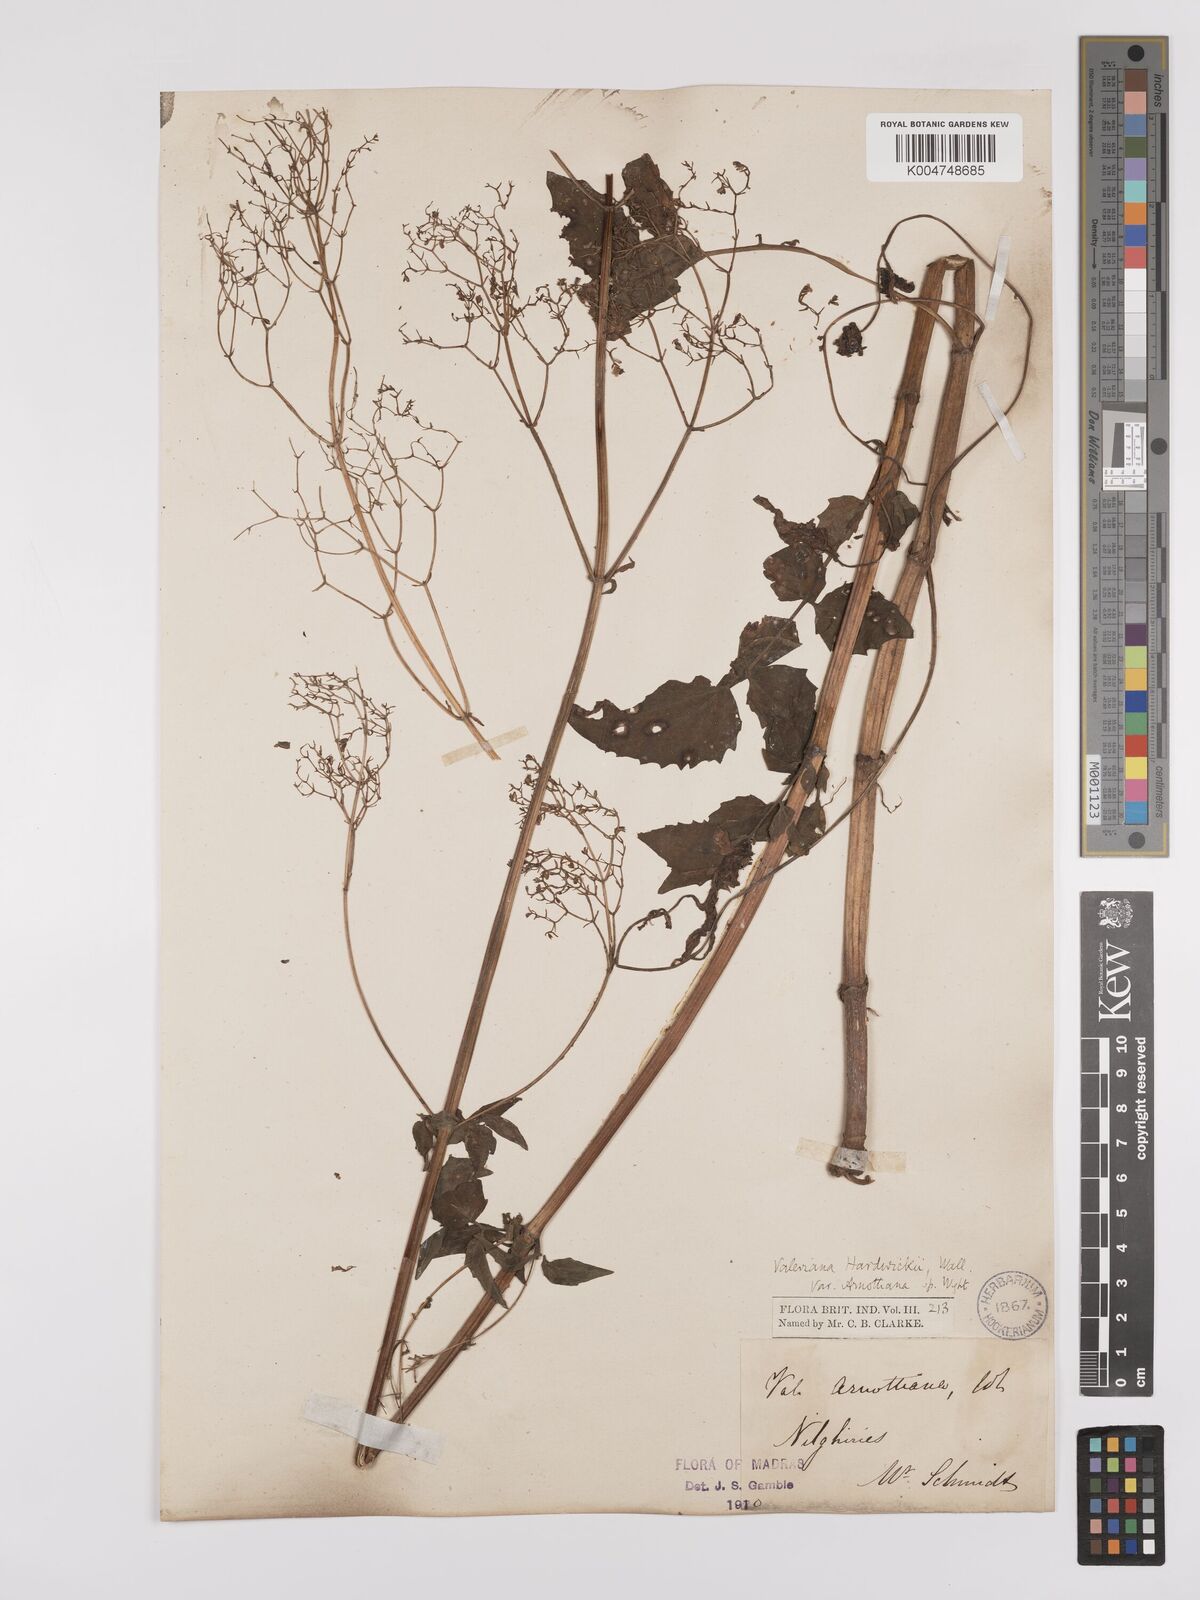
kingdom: Plantae
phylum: Tracheophyta
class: Magnoliopsida
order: Dipsacales
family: Caprifoliaceae
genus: Valeriana
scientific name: Valeriana hardwickei
